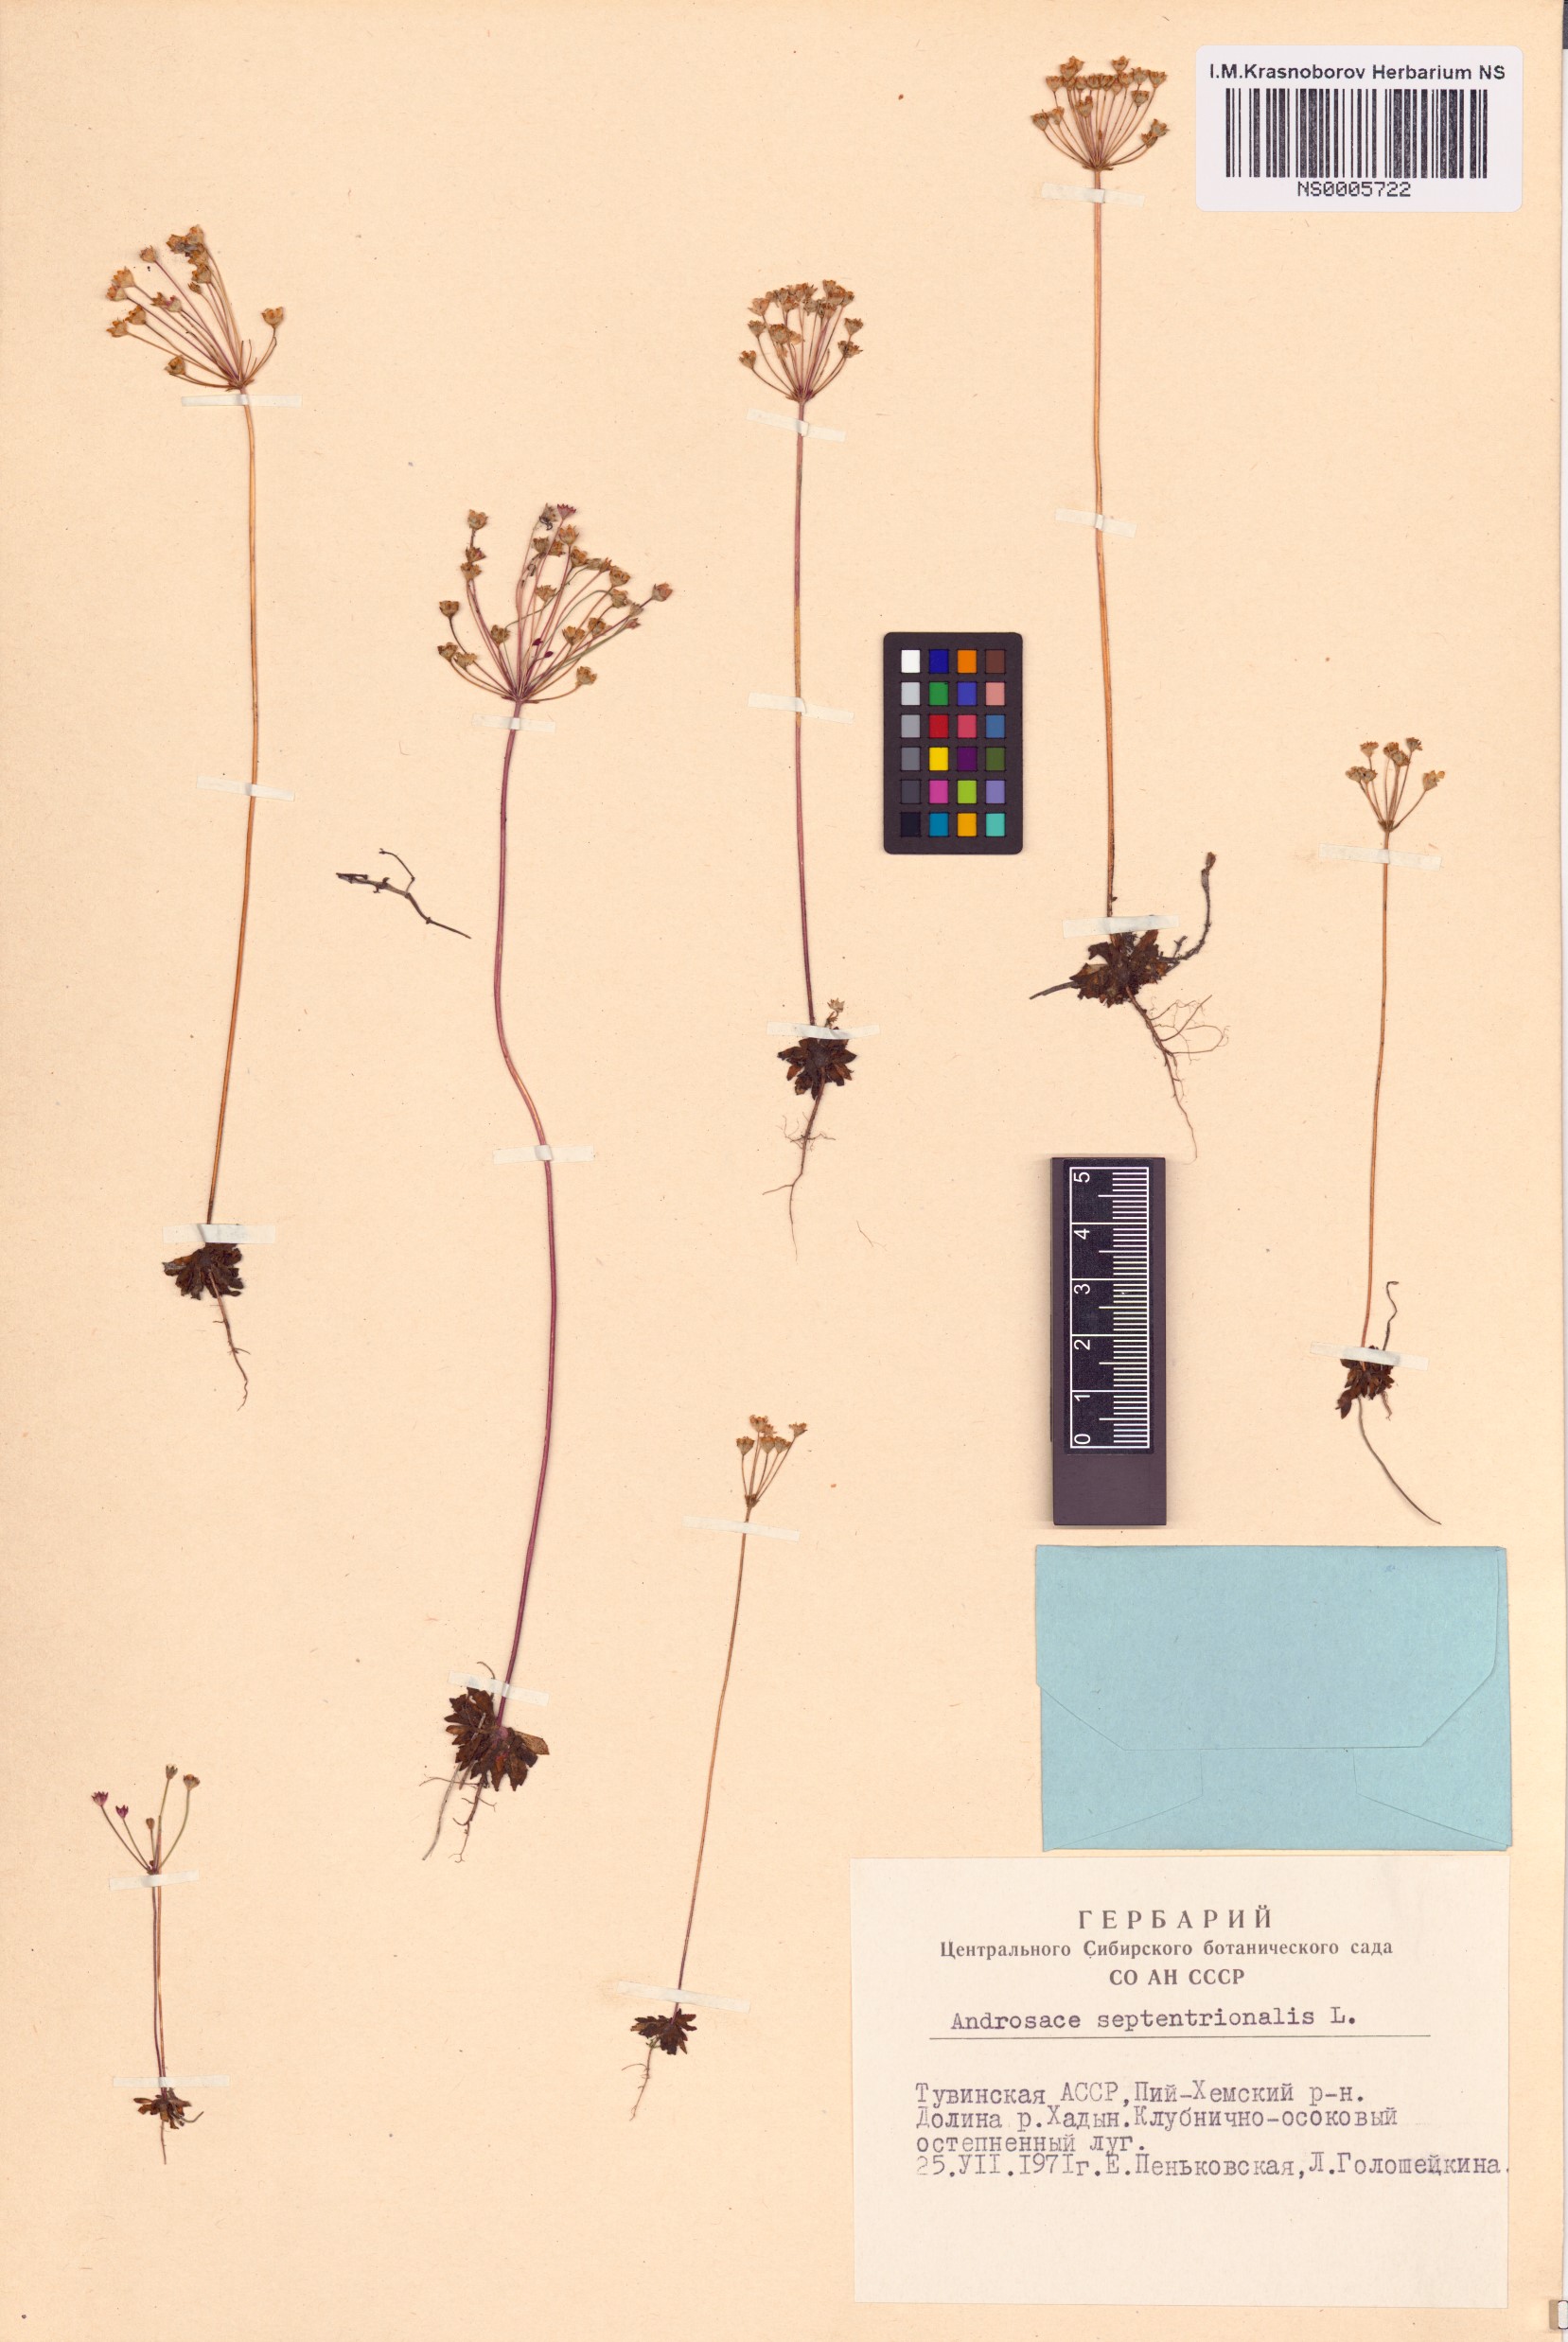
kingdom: Plantae
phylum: Tracheophyta
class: Magnoliopsida
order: Ericales
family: Primulaceae
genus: Androsace
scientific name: Androsace septentrionalis
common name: Hairy northern fairy-candelabra
